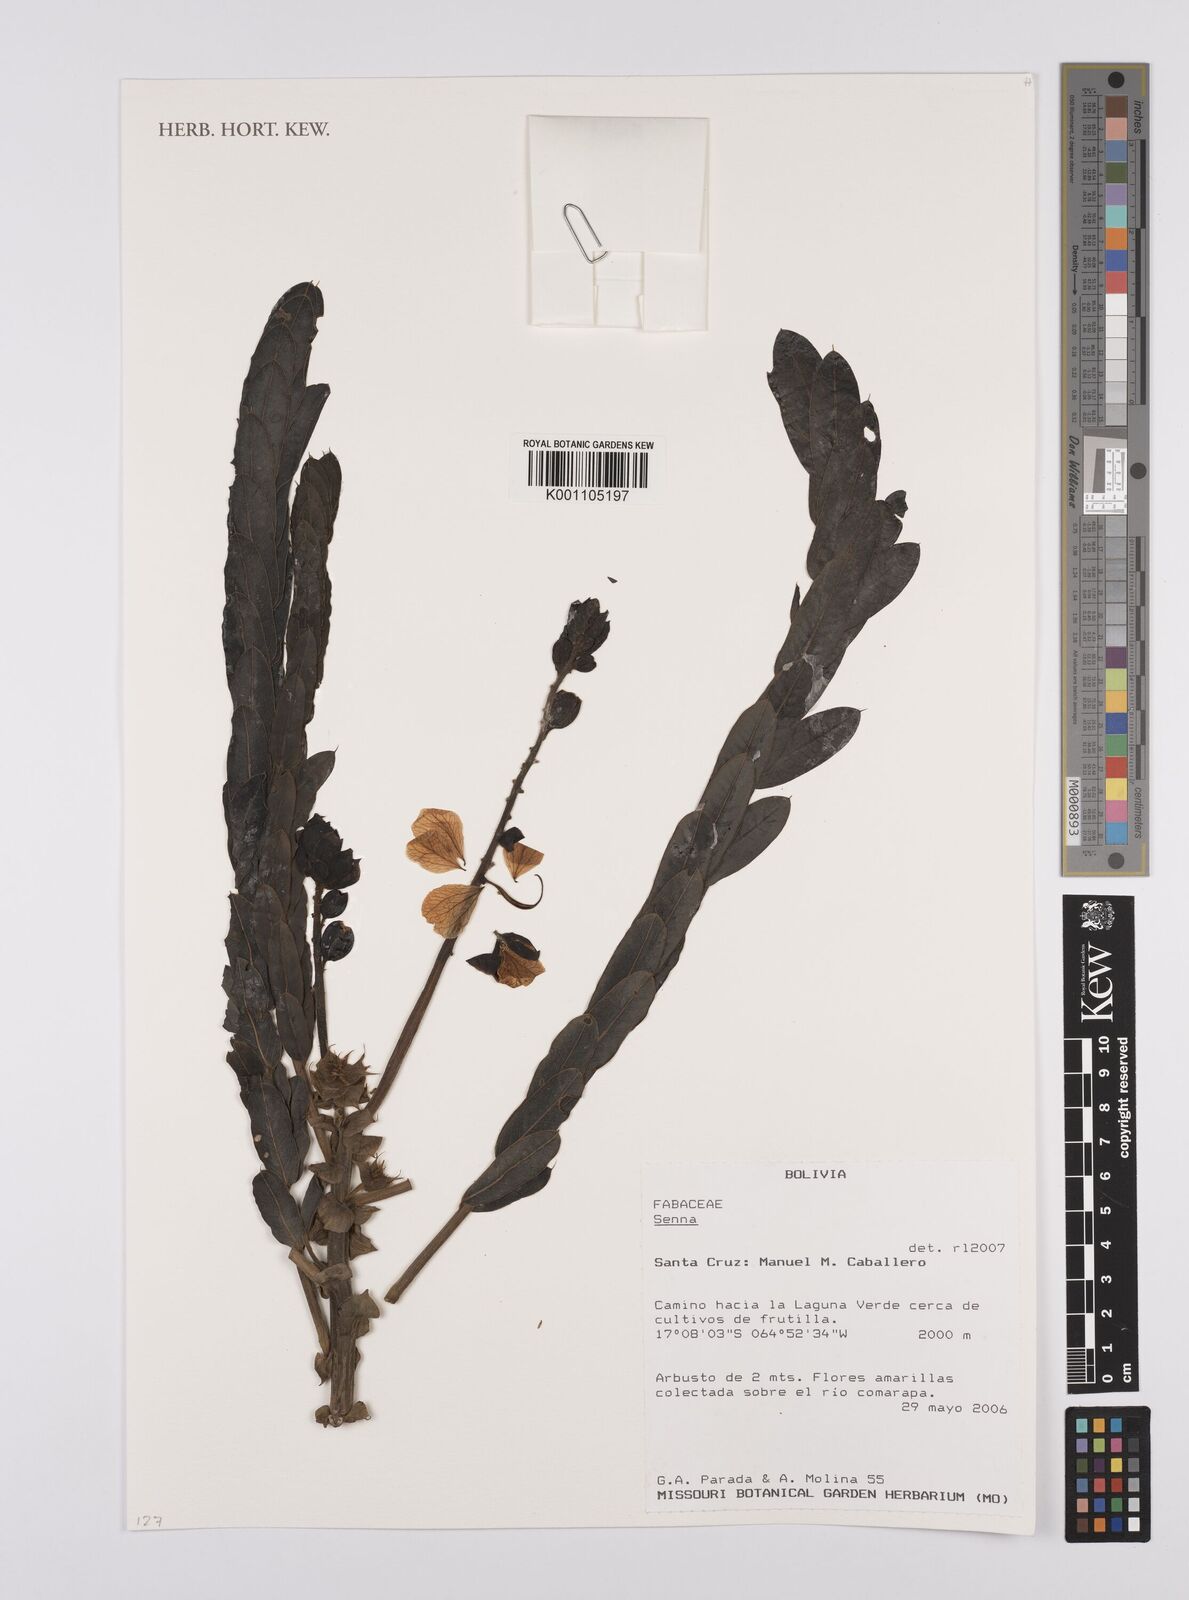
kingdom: Plantae
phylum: Tracheophyta
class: Magnoliopsida
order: Fabales
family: Fabaceae
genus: Senna
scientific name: Senna
